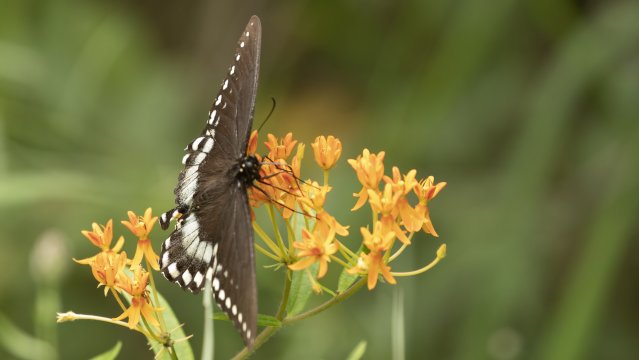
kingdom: Animalia
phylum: Arthropoda
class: Insecta
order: Lepidoptera
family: Papilionidae
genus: Pterourus
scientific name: Pterourus troilus
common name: Spicebush Swallowtail
